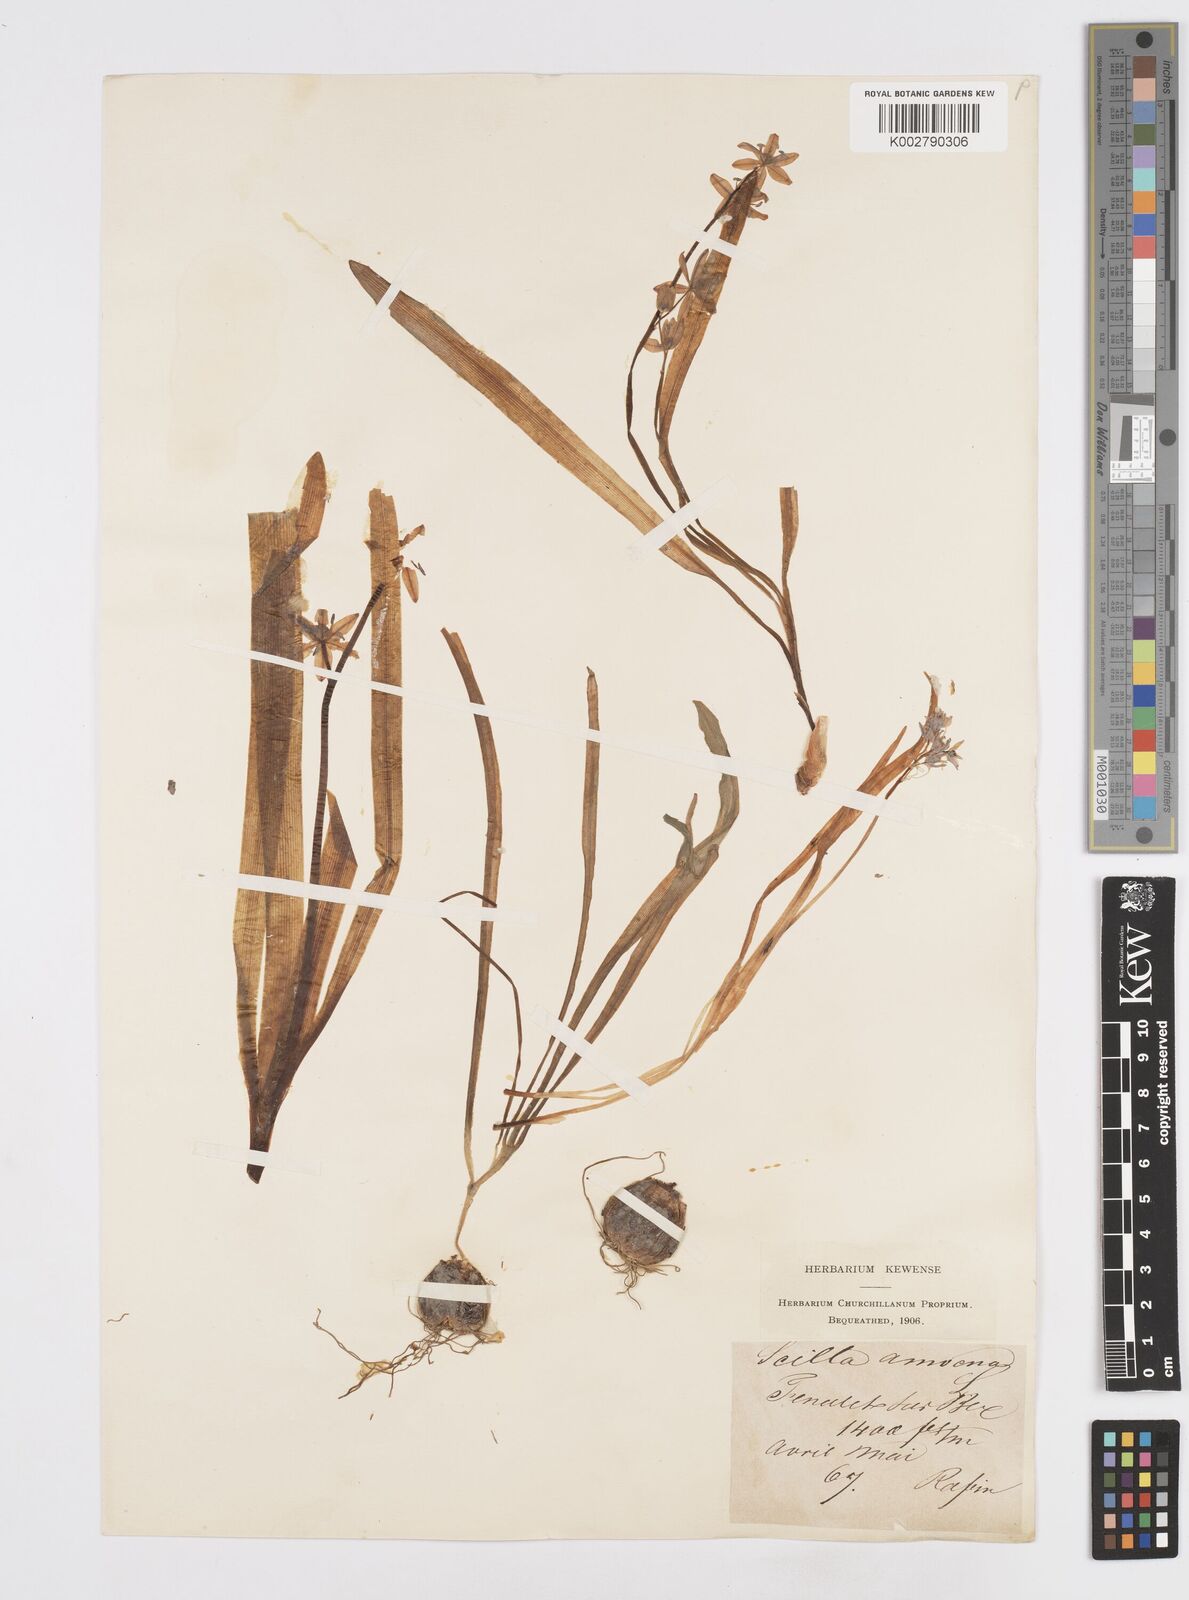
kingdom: Plantae
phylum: Tracheophyta
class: Liliopsida
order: Asparagales
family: Asparagaceae
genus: Scilla
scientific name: Scilla amoena
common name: Star-hyacinth
